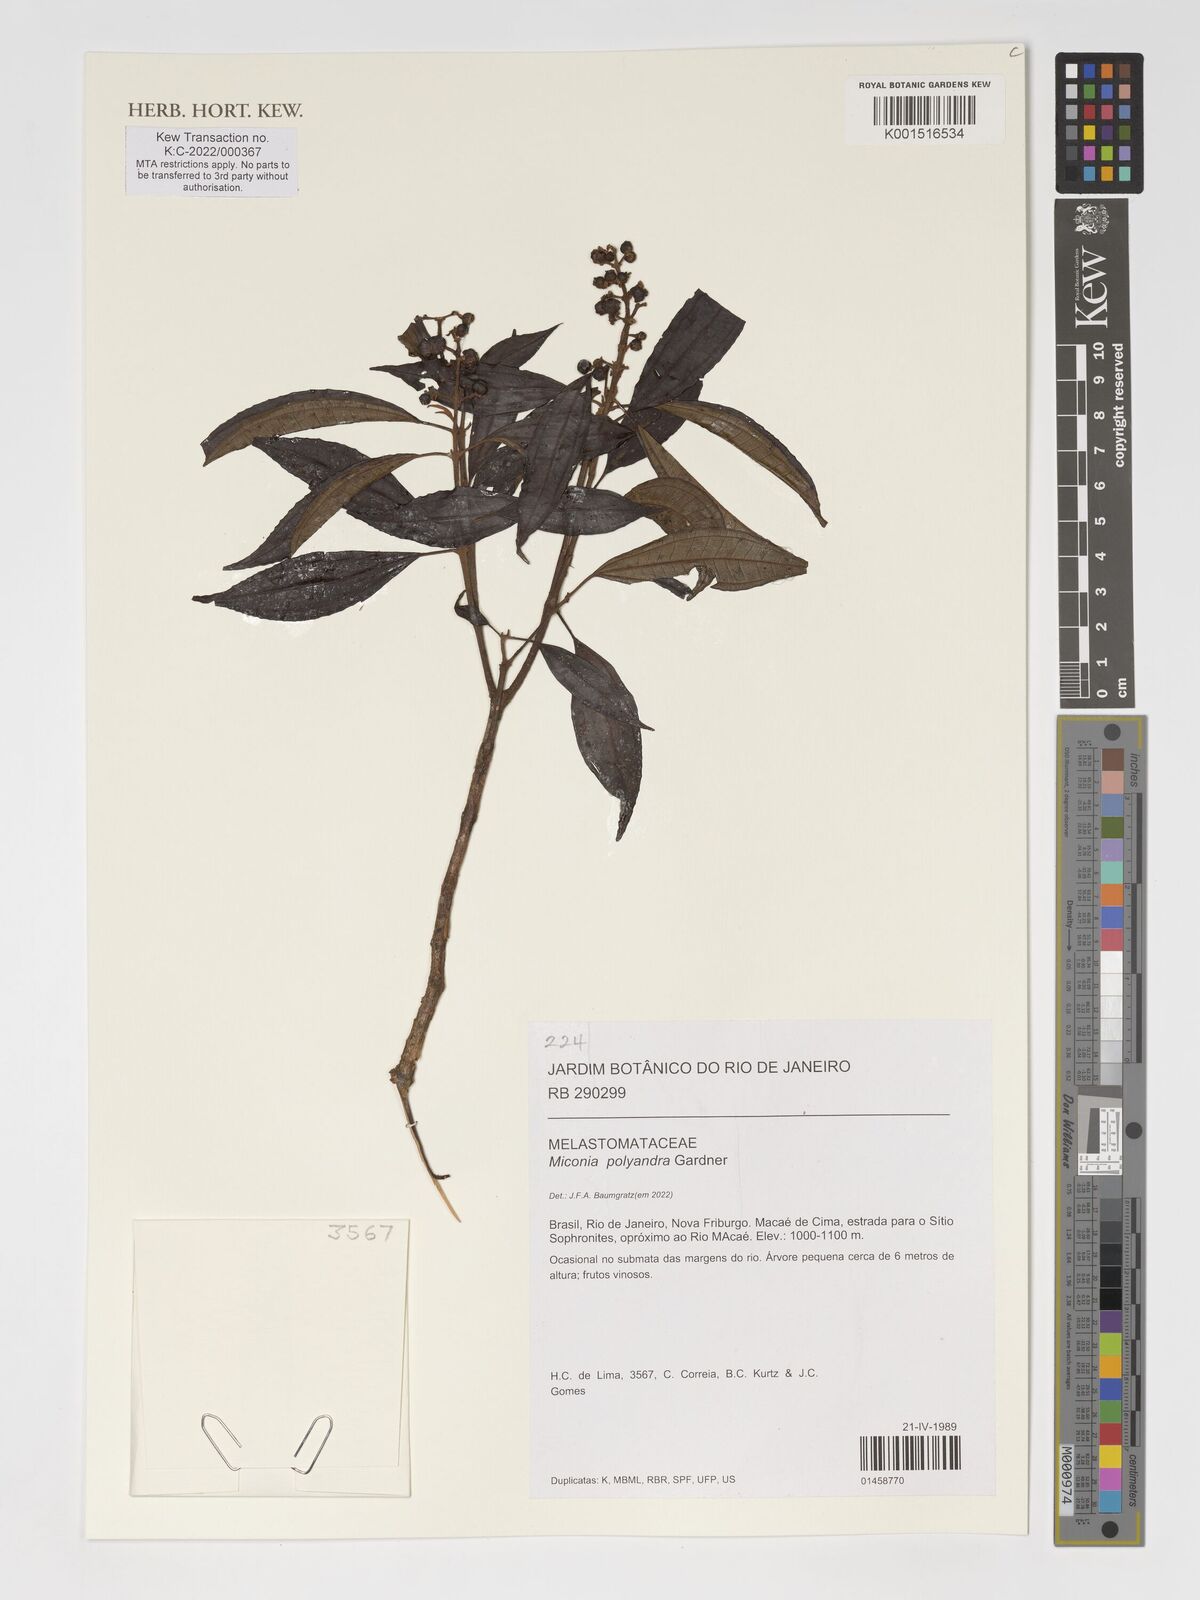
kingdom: Plantae
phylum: Tracheophyta
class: Magnoliopsida
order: Myrtales
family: Melastomataceae
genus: Miconia
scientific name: Miconia
